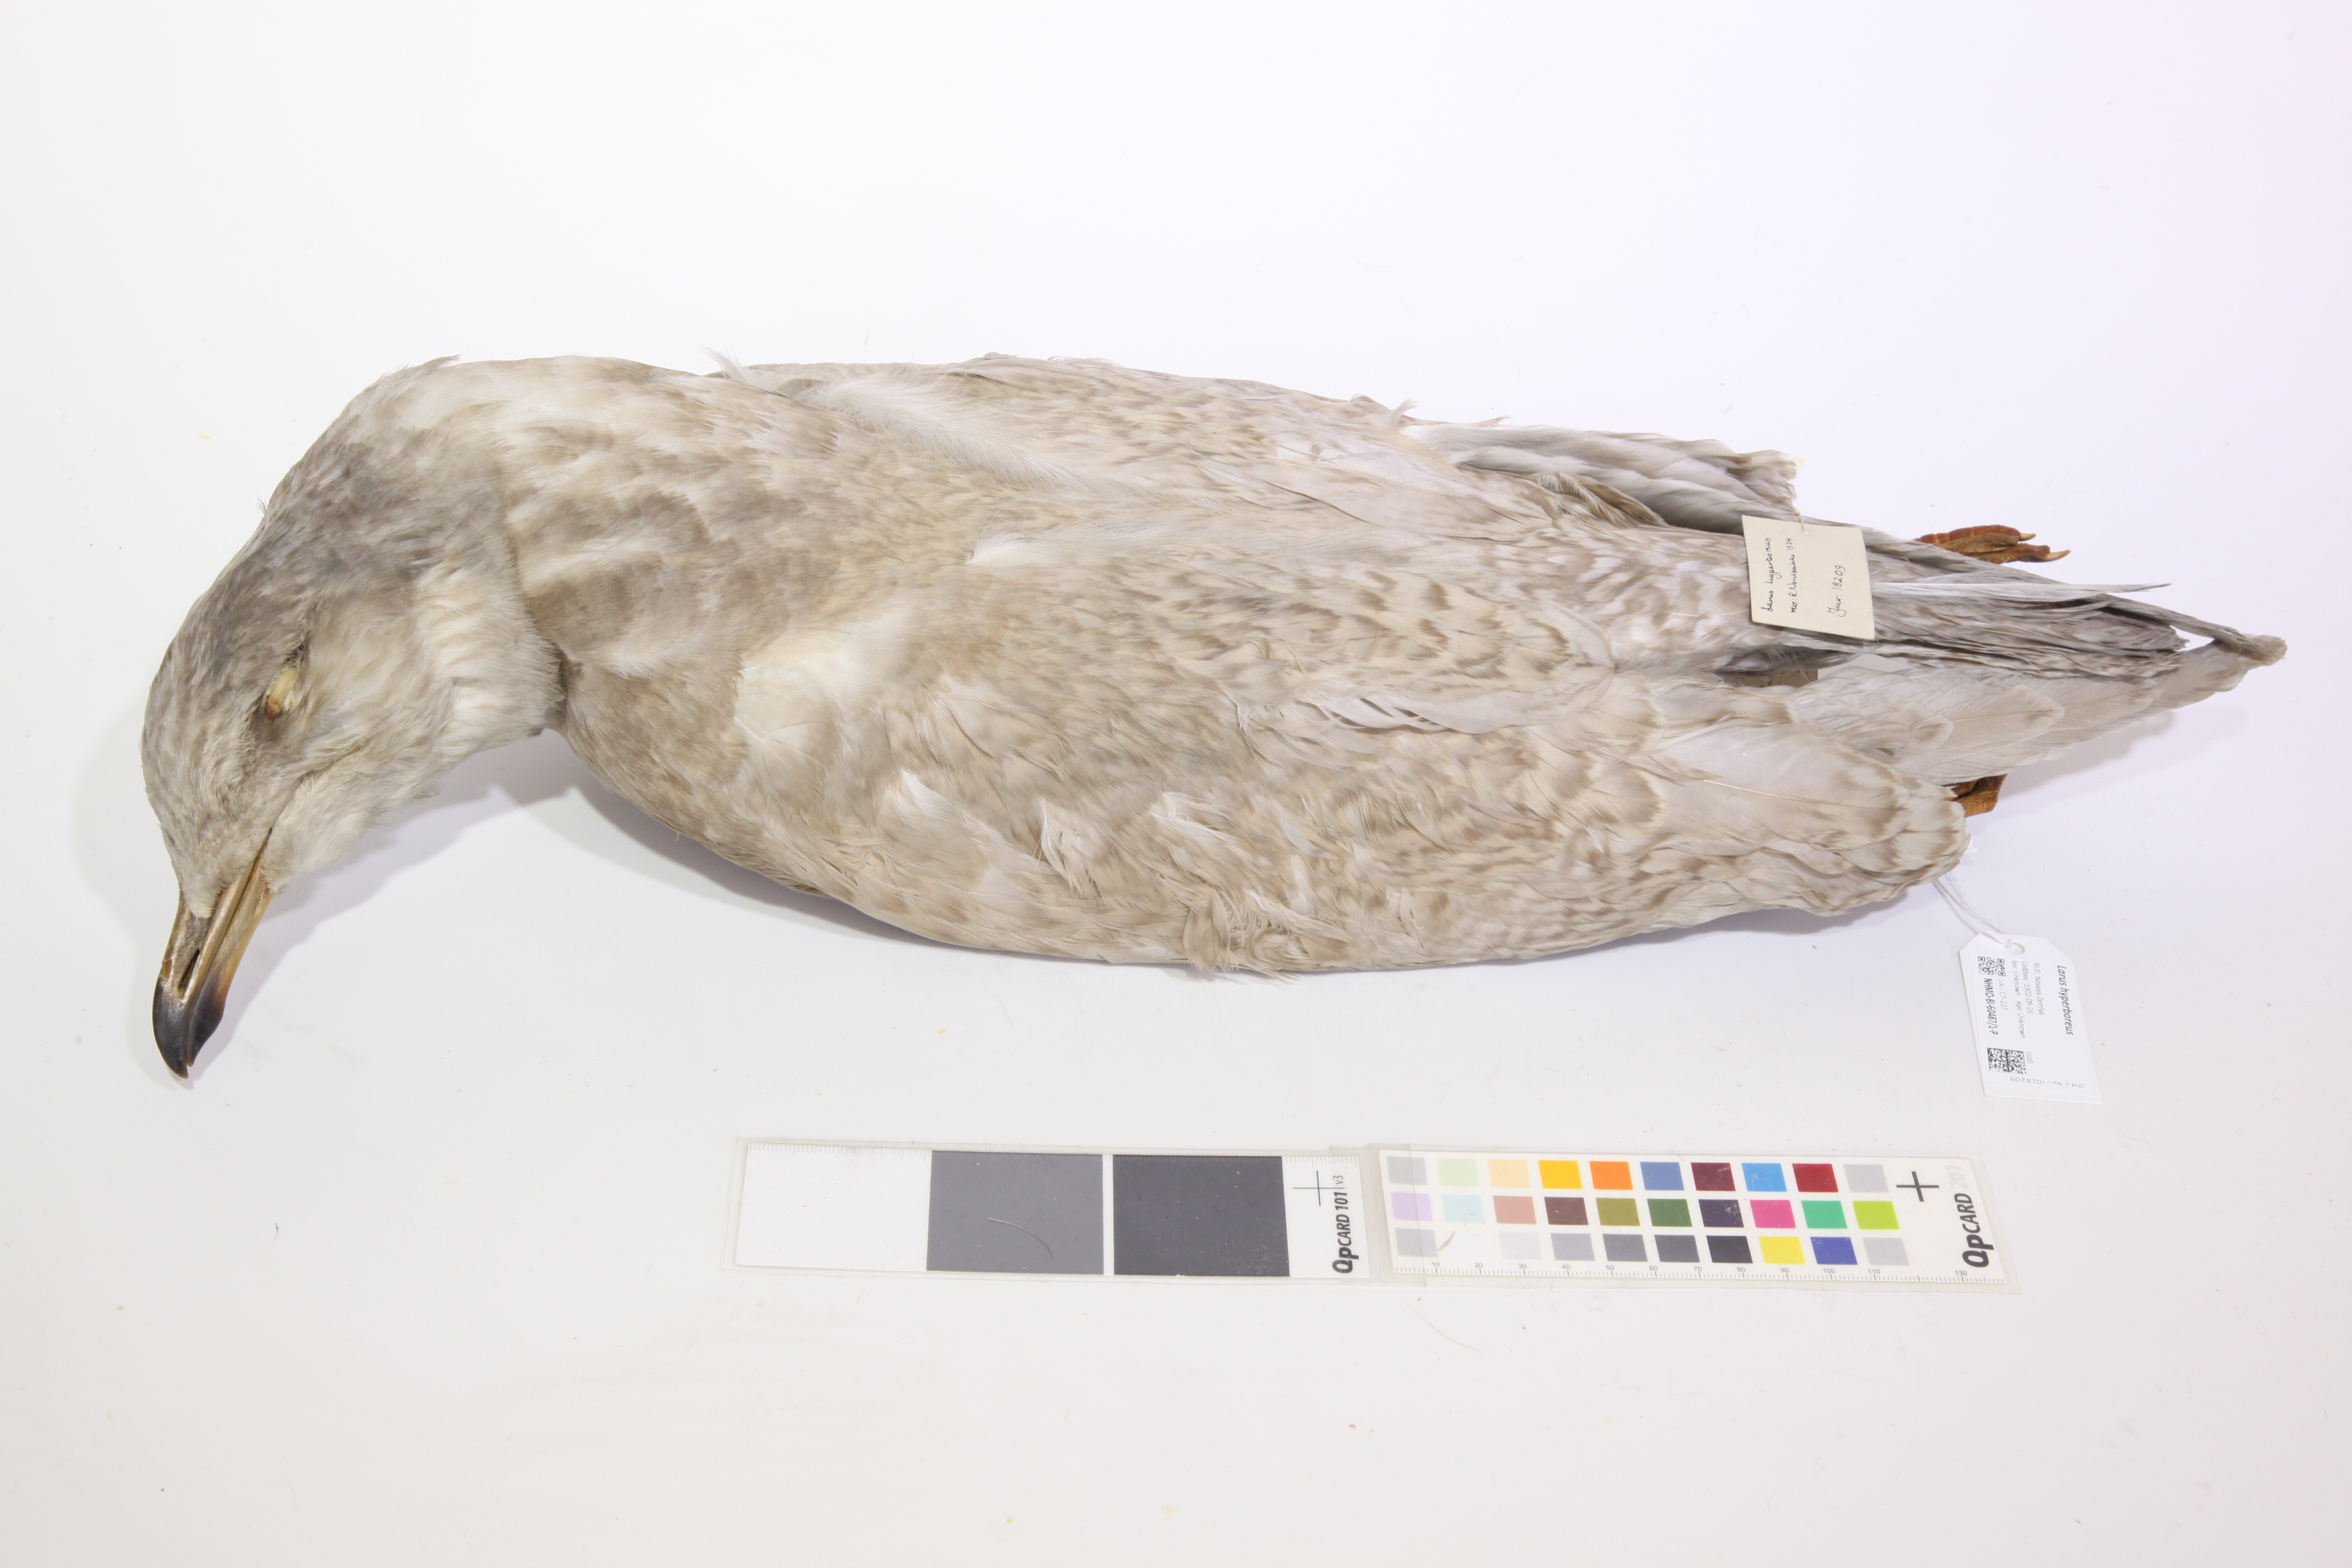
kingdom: Animalia
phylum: Chordata
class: Aves
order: Charadriiformes
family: Laridae
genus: Larus
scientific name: Larus hyperboreus
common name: Glaucous gull
